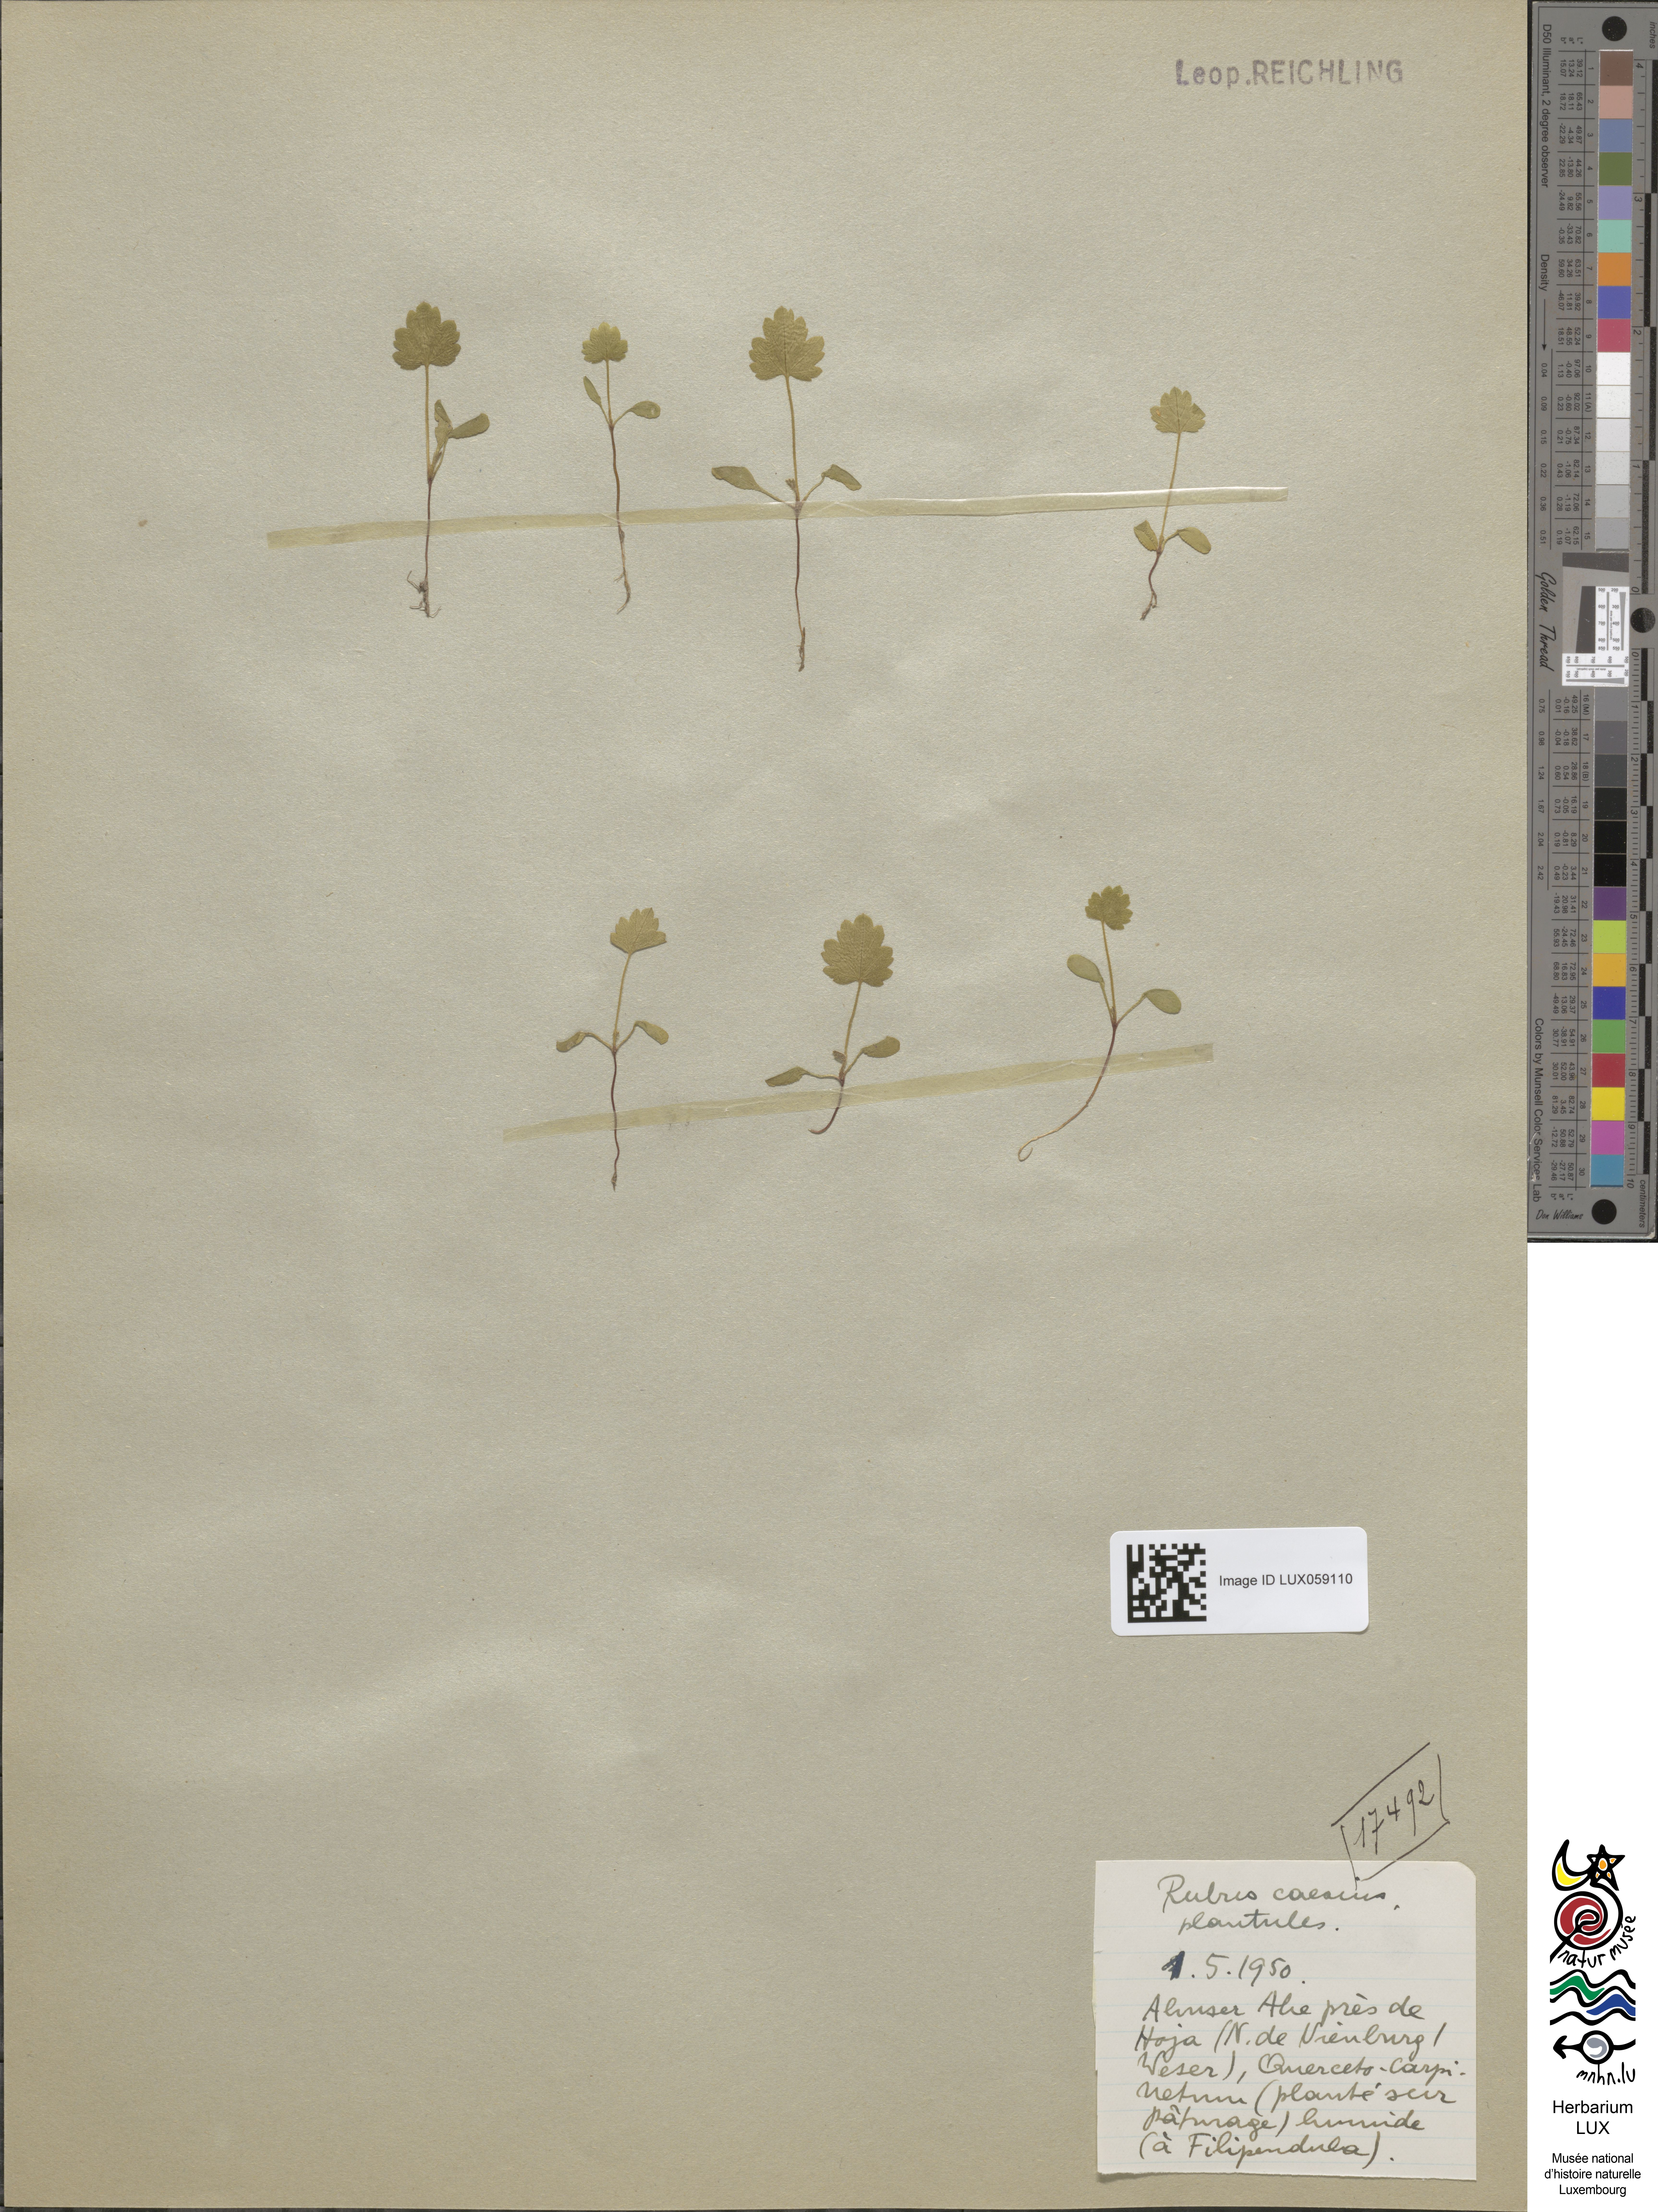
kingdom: Plantae
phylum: Tracheophyta
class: Magnoliopsida
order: Rosales
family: Rosaceae
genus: Rubus
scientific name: Rubus caesius
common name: Dewberry
